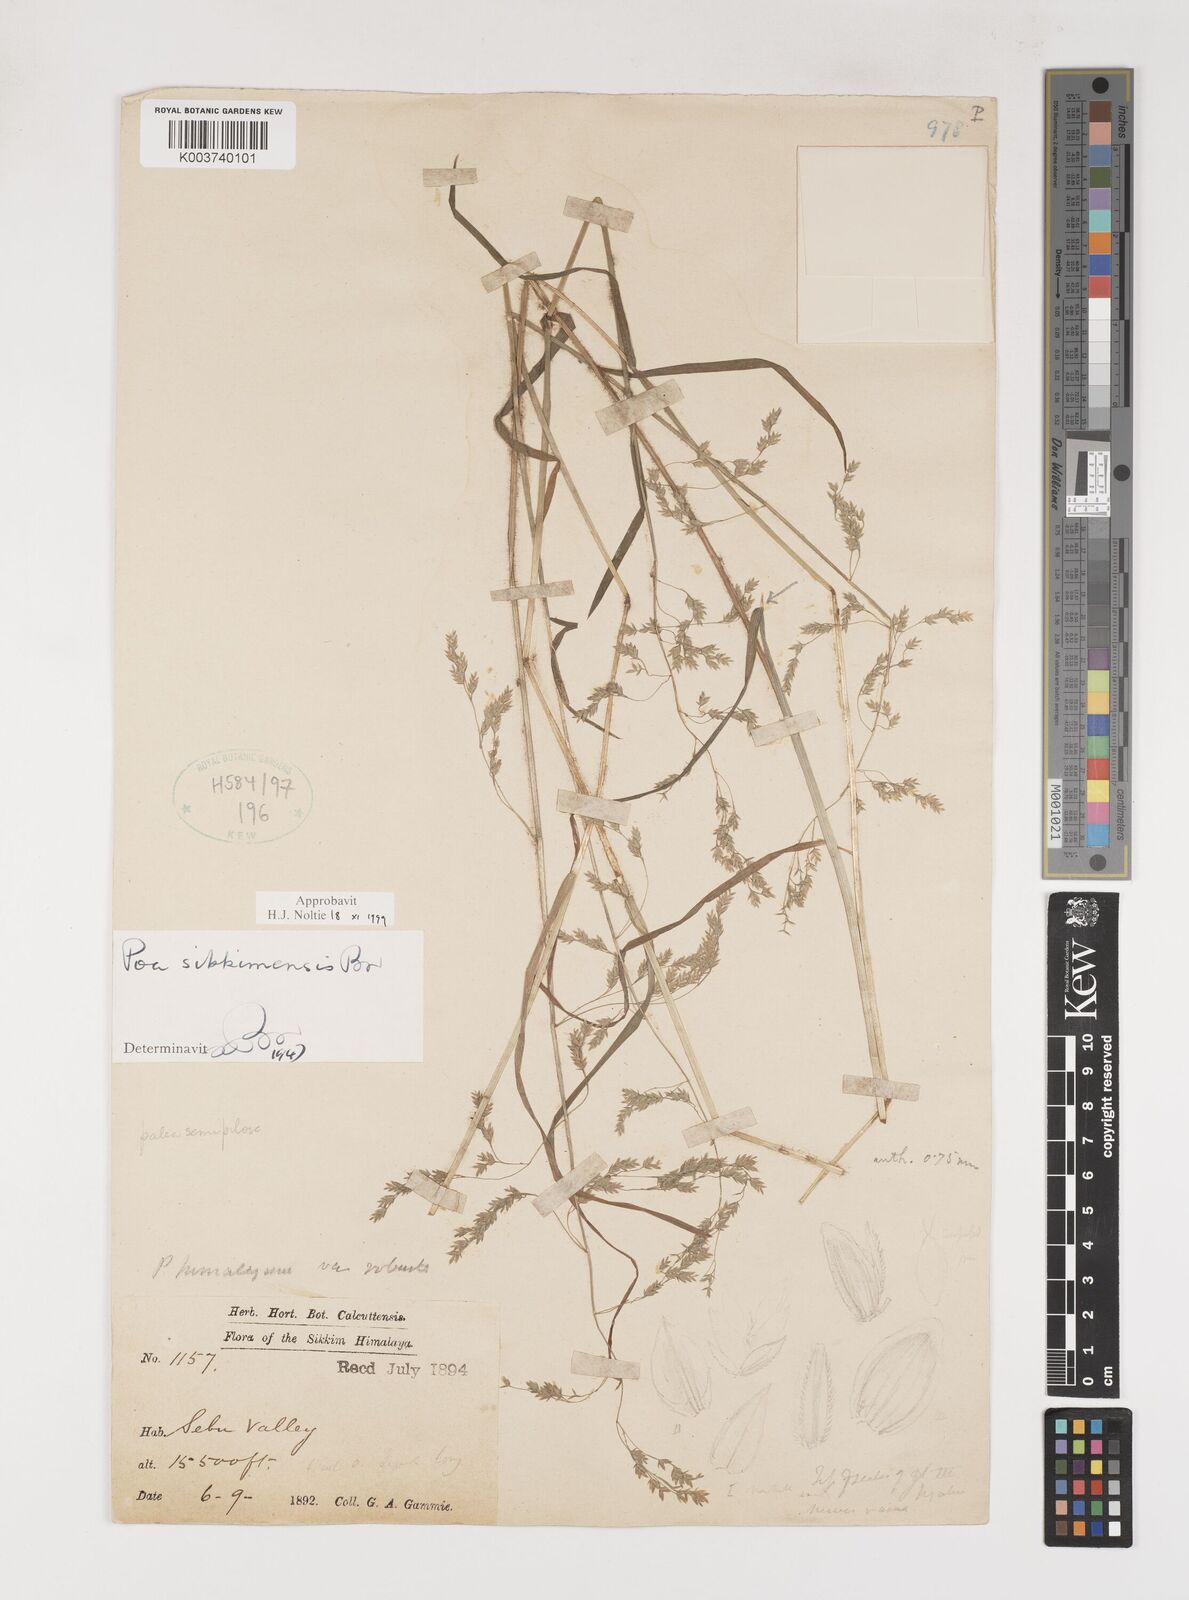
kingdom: Plantae
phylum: Tracheophyta
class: Liliopsida
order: Poales
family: Poaceae
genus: Poa
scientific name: Poa sikkimensis
